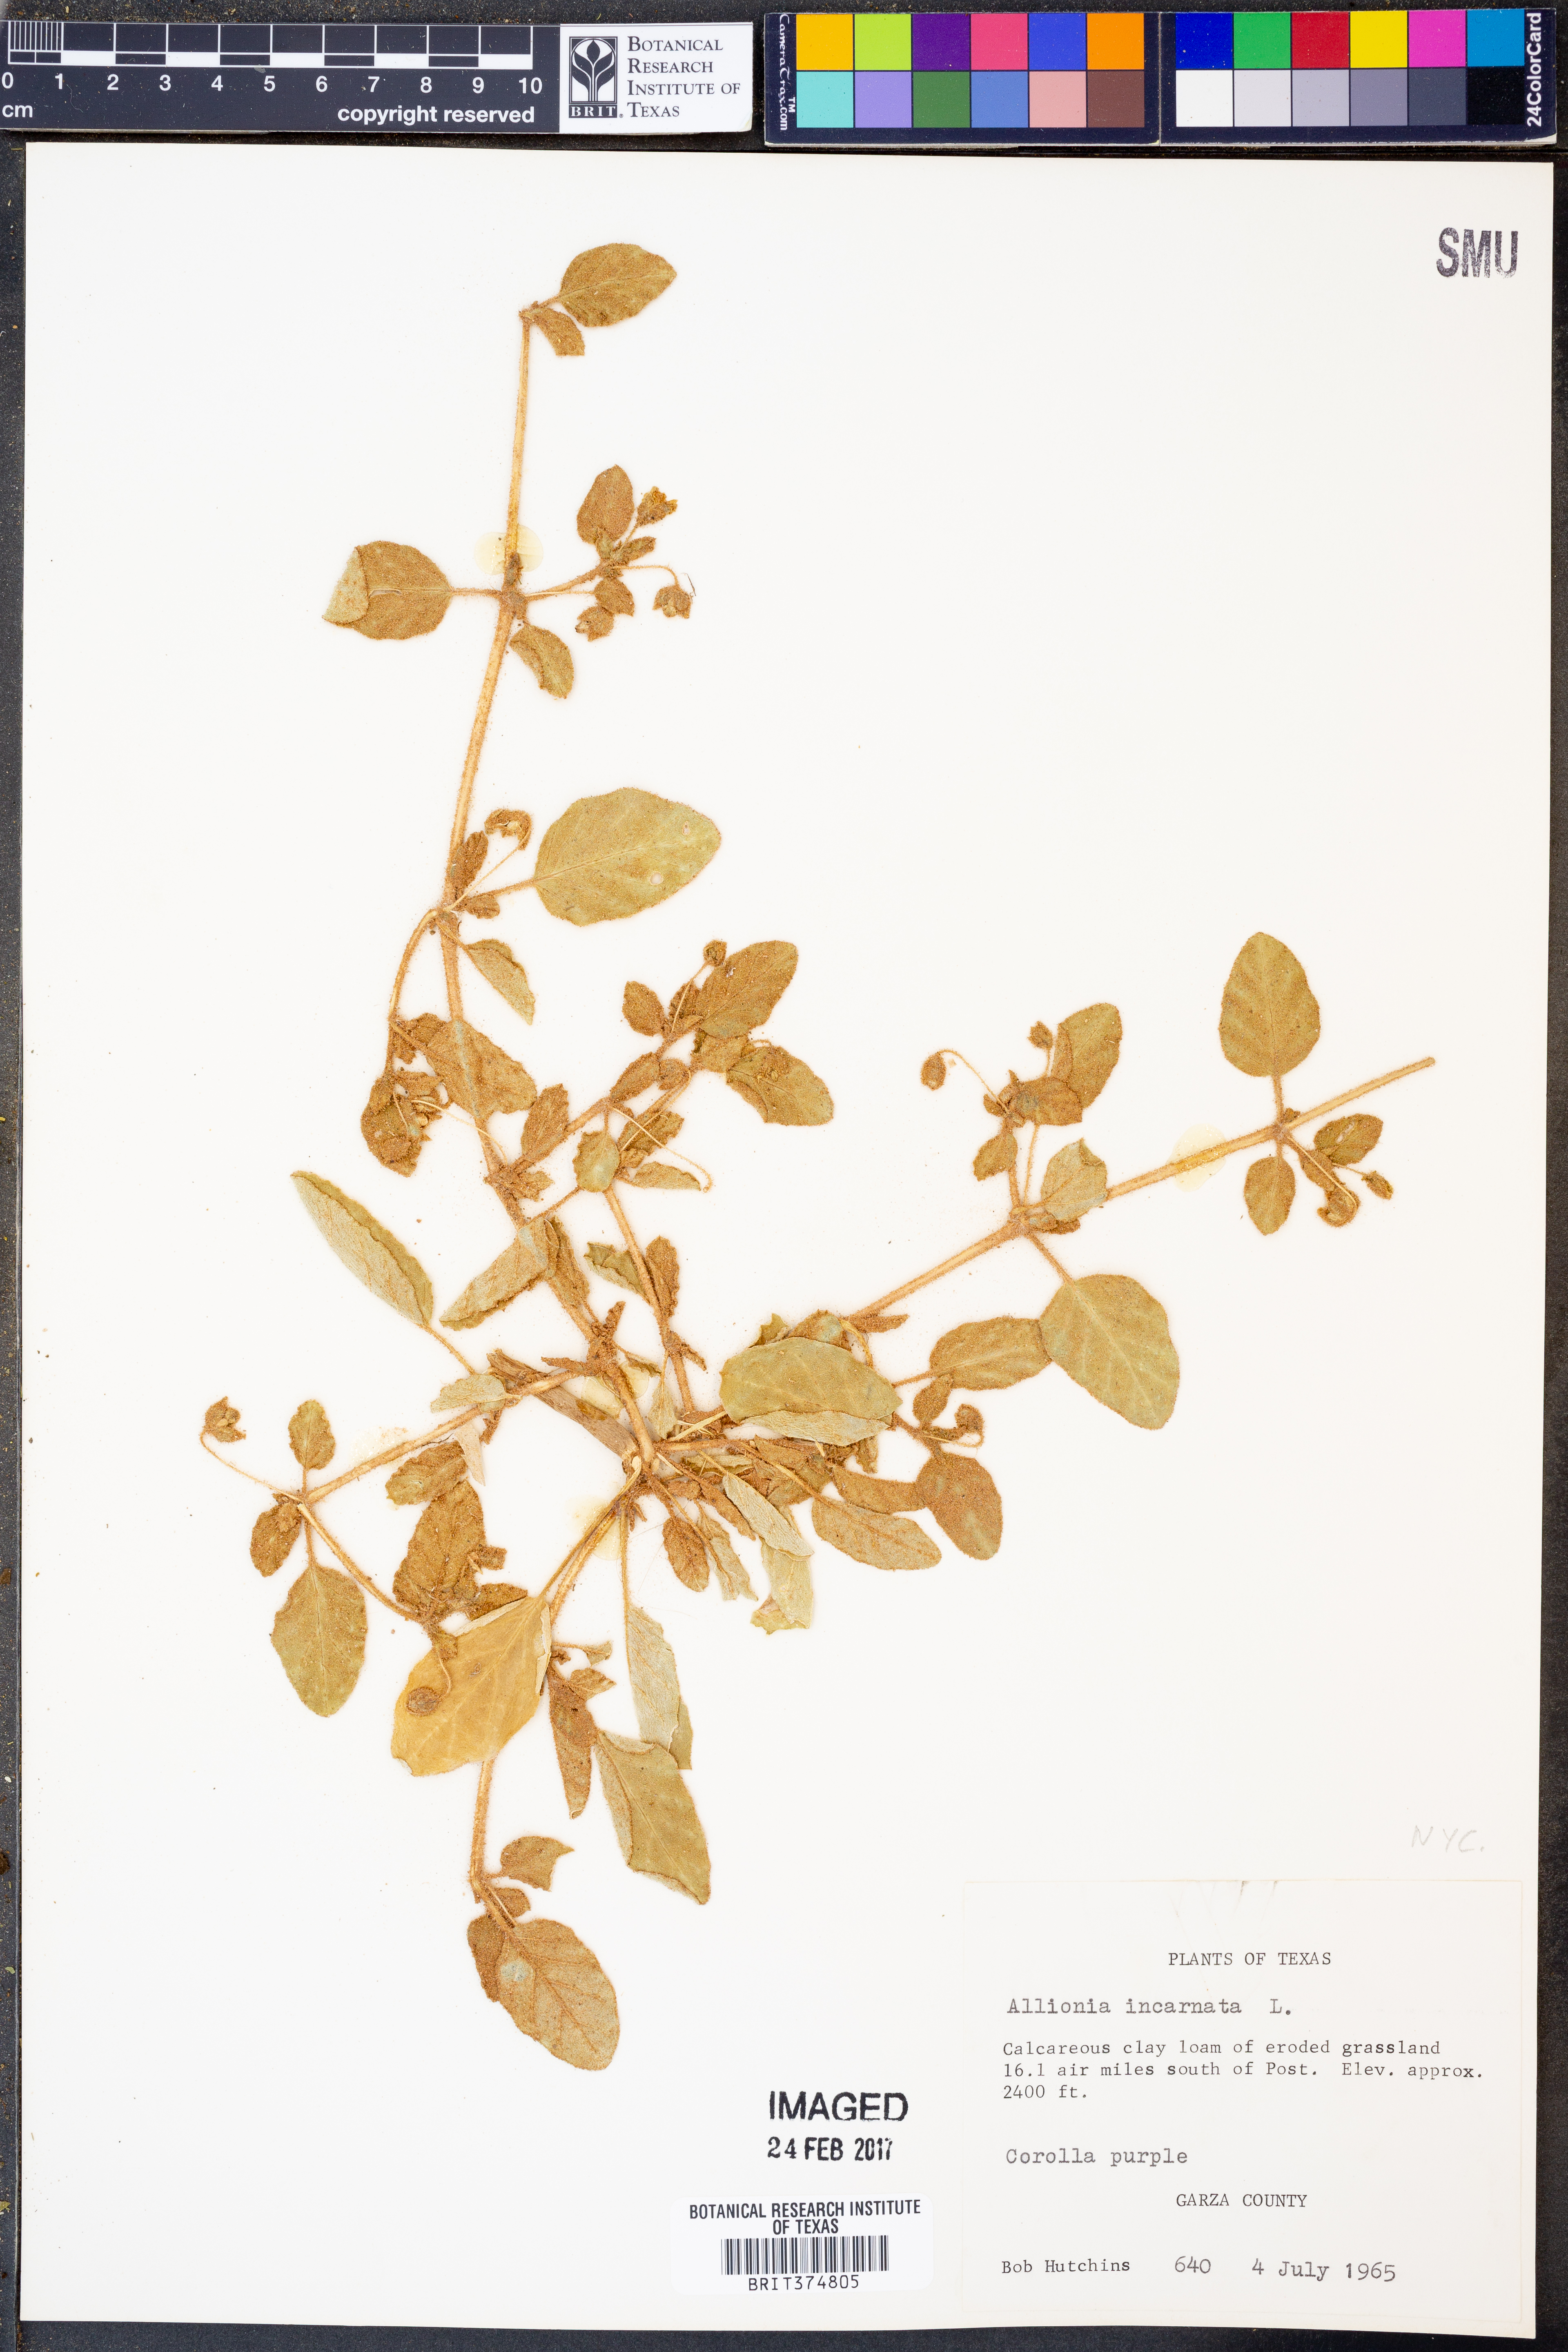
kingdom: Plantae
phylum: Tracheophyta
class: Magnoliopsida
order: Caryophyllales
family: Nyctaginaceae
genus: Allionia
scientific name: Allionia incarnata
